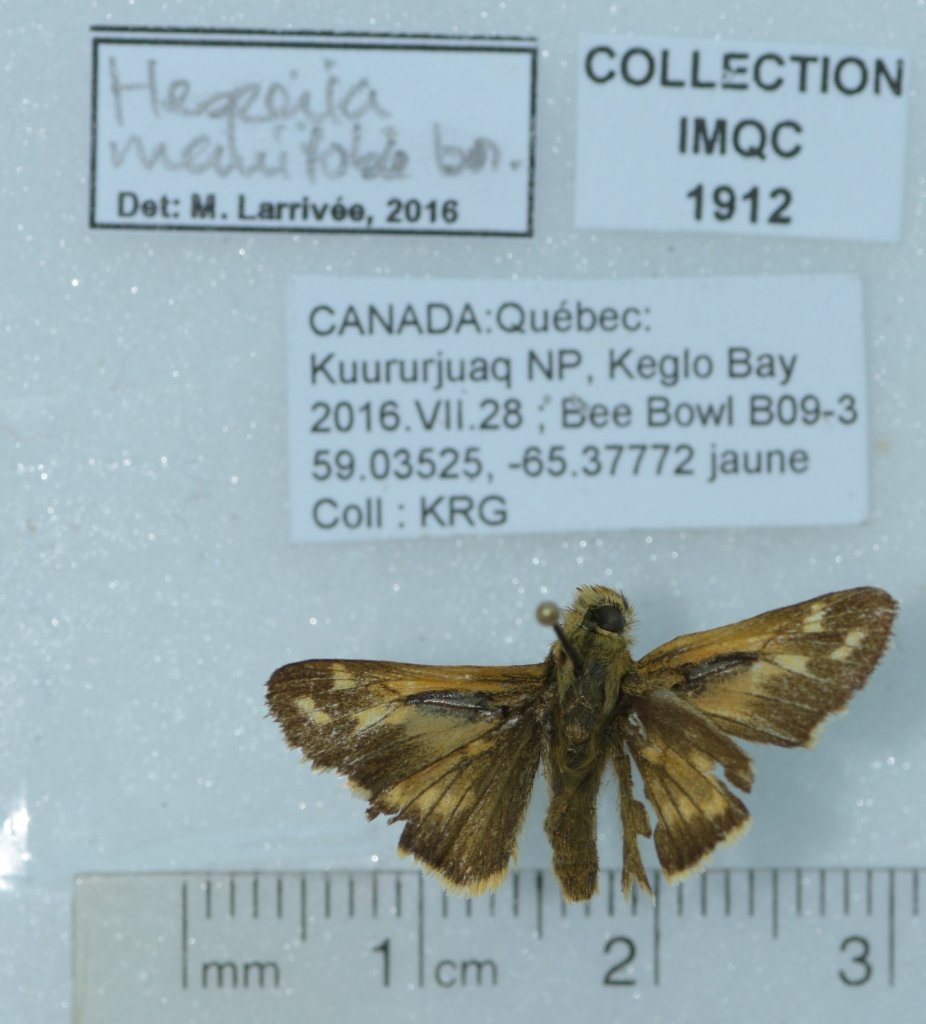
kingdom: Animalia
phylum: Arthropoda
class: Insecta
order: Lepidoptera
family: Hesperiidae
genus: Hesperia
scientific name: Hesperia comma
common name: Common Branded Skipper
